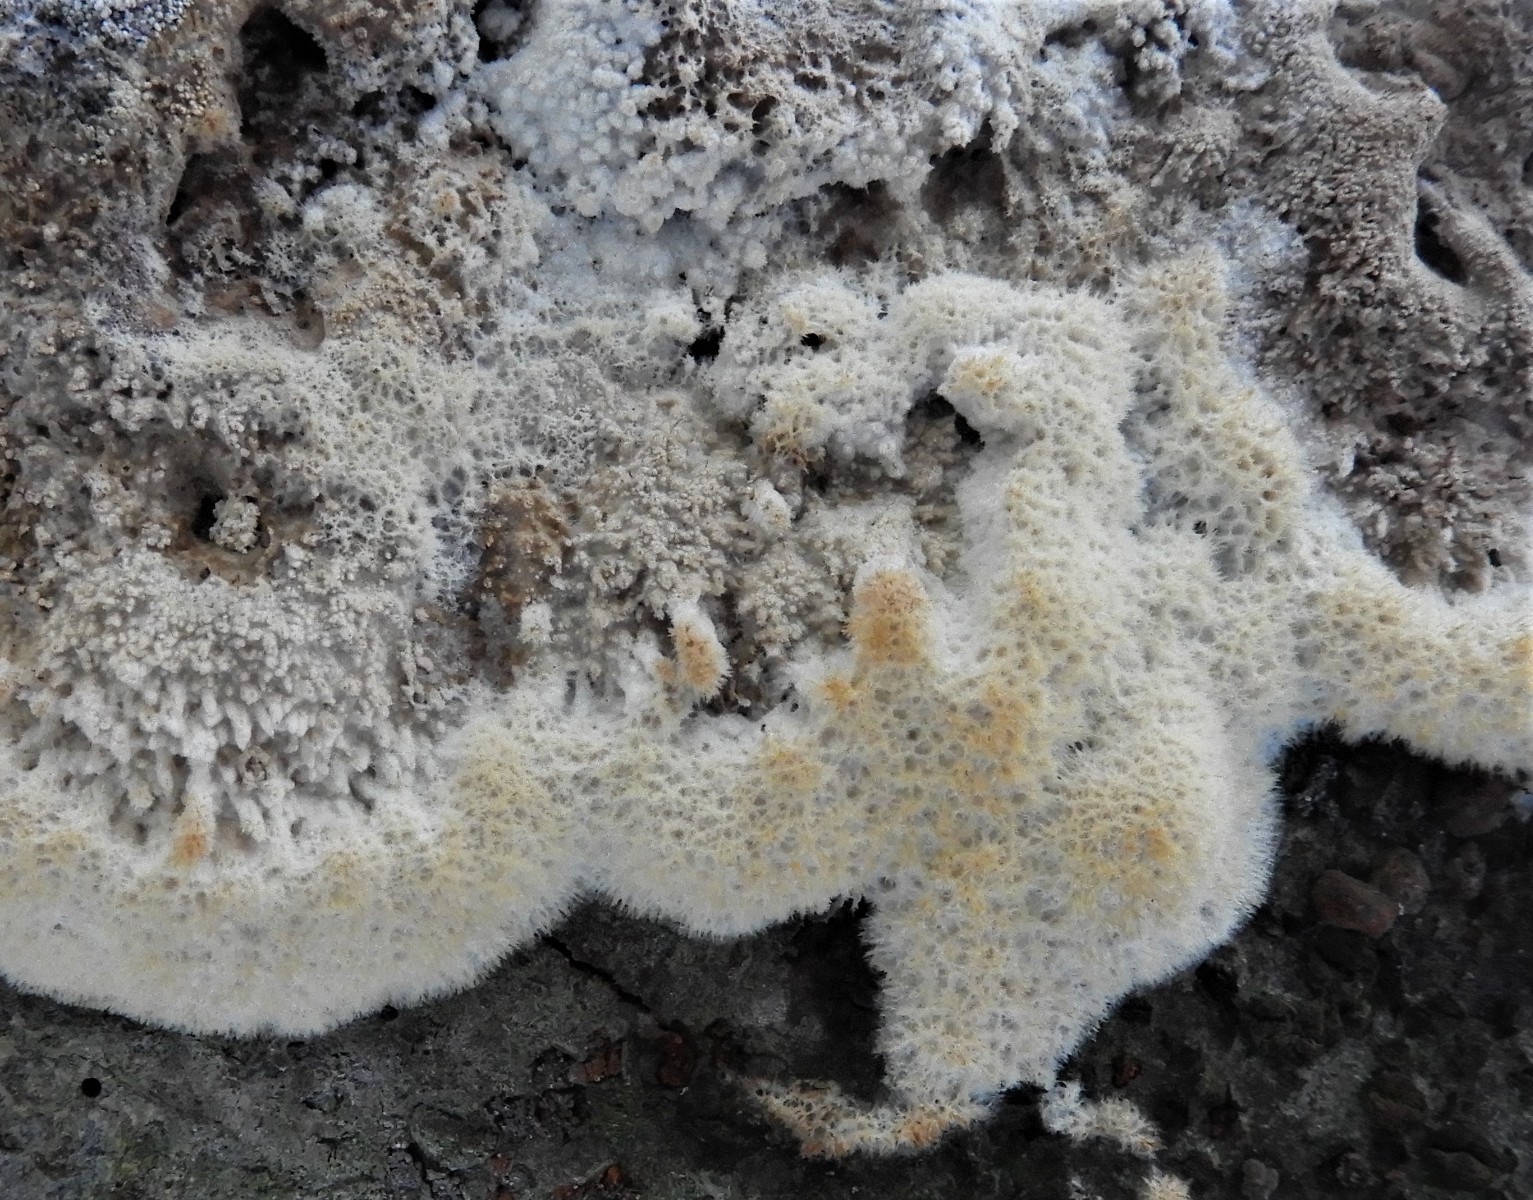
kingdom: Fungi
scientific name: Fungi
